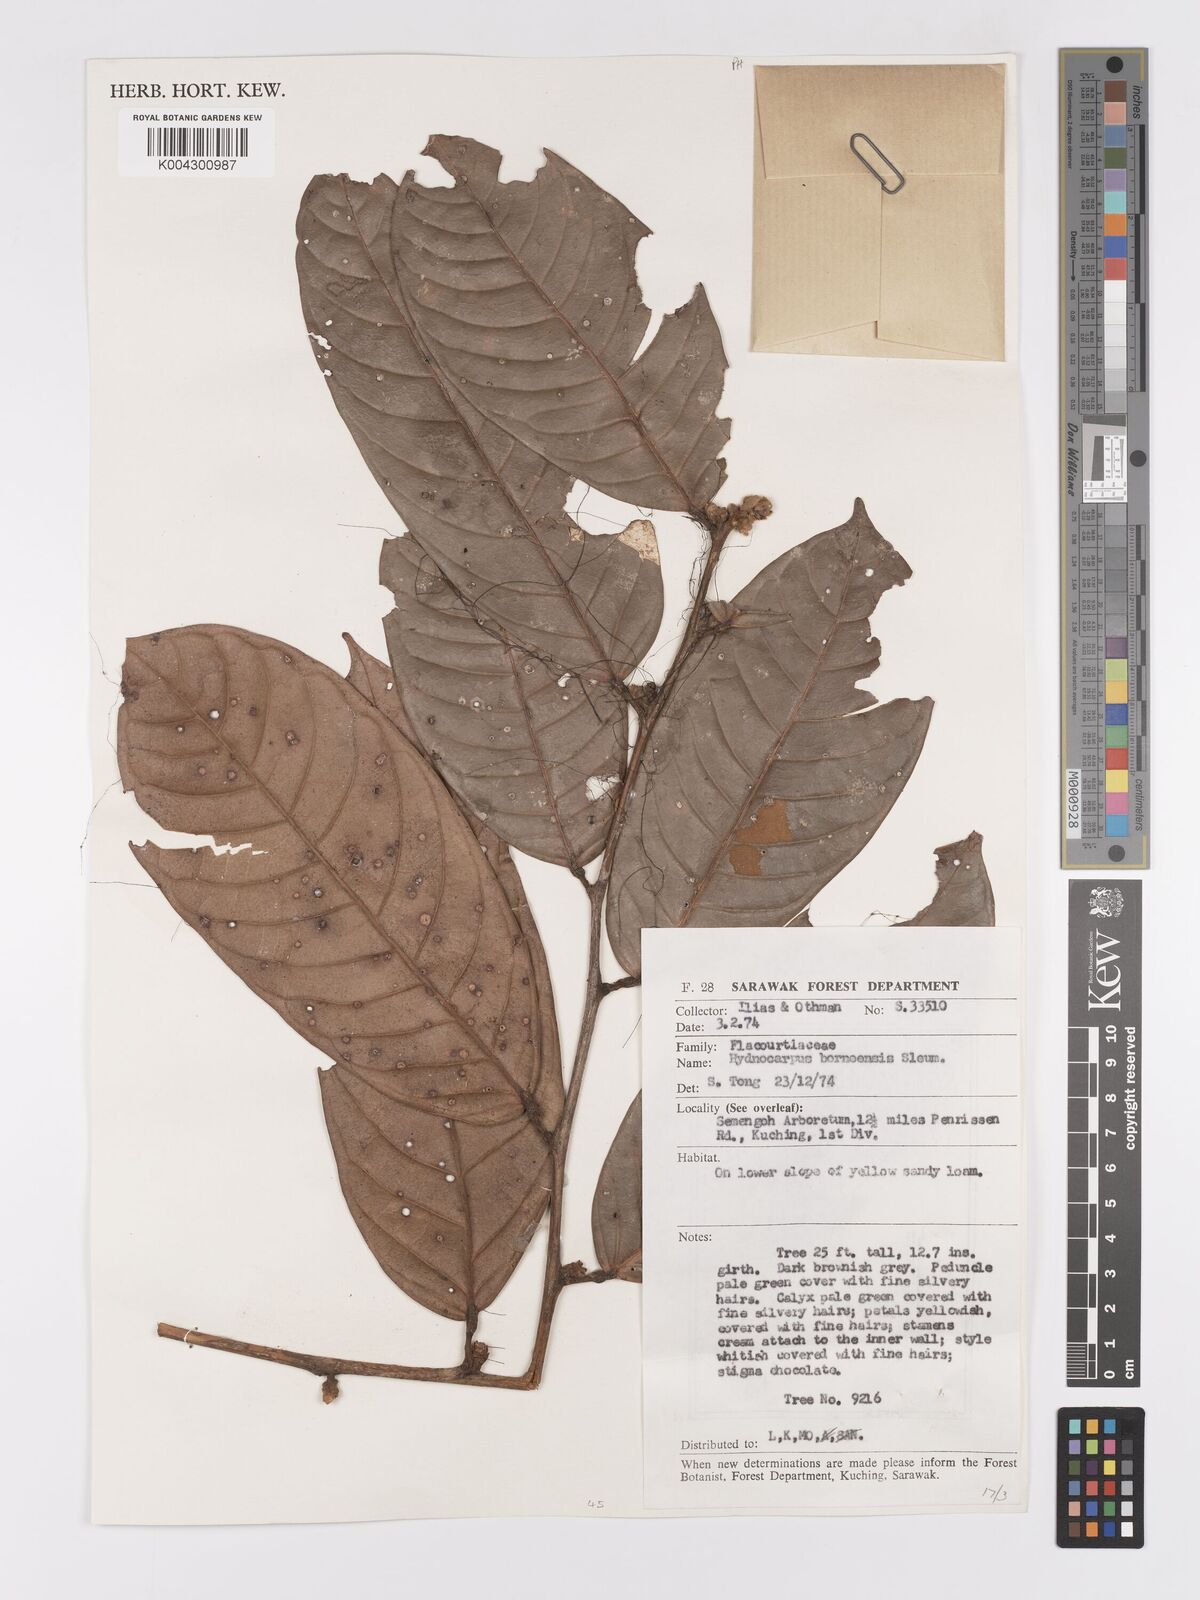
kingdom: Plantae
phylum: Tracheophyta
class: Magnoliopsida
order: Malpighiales
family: Achariaceae
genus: Hydnocarpus
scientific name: Hydnocarpus borneensis
